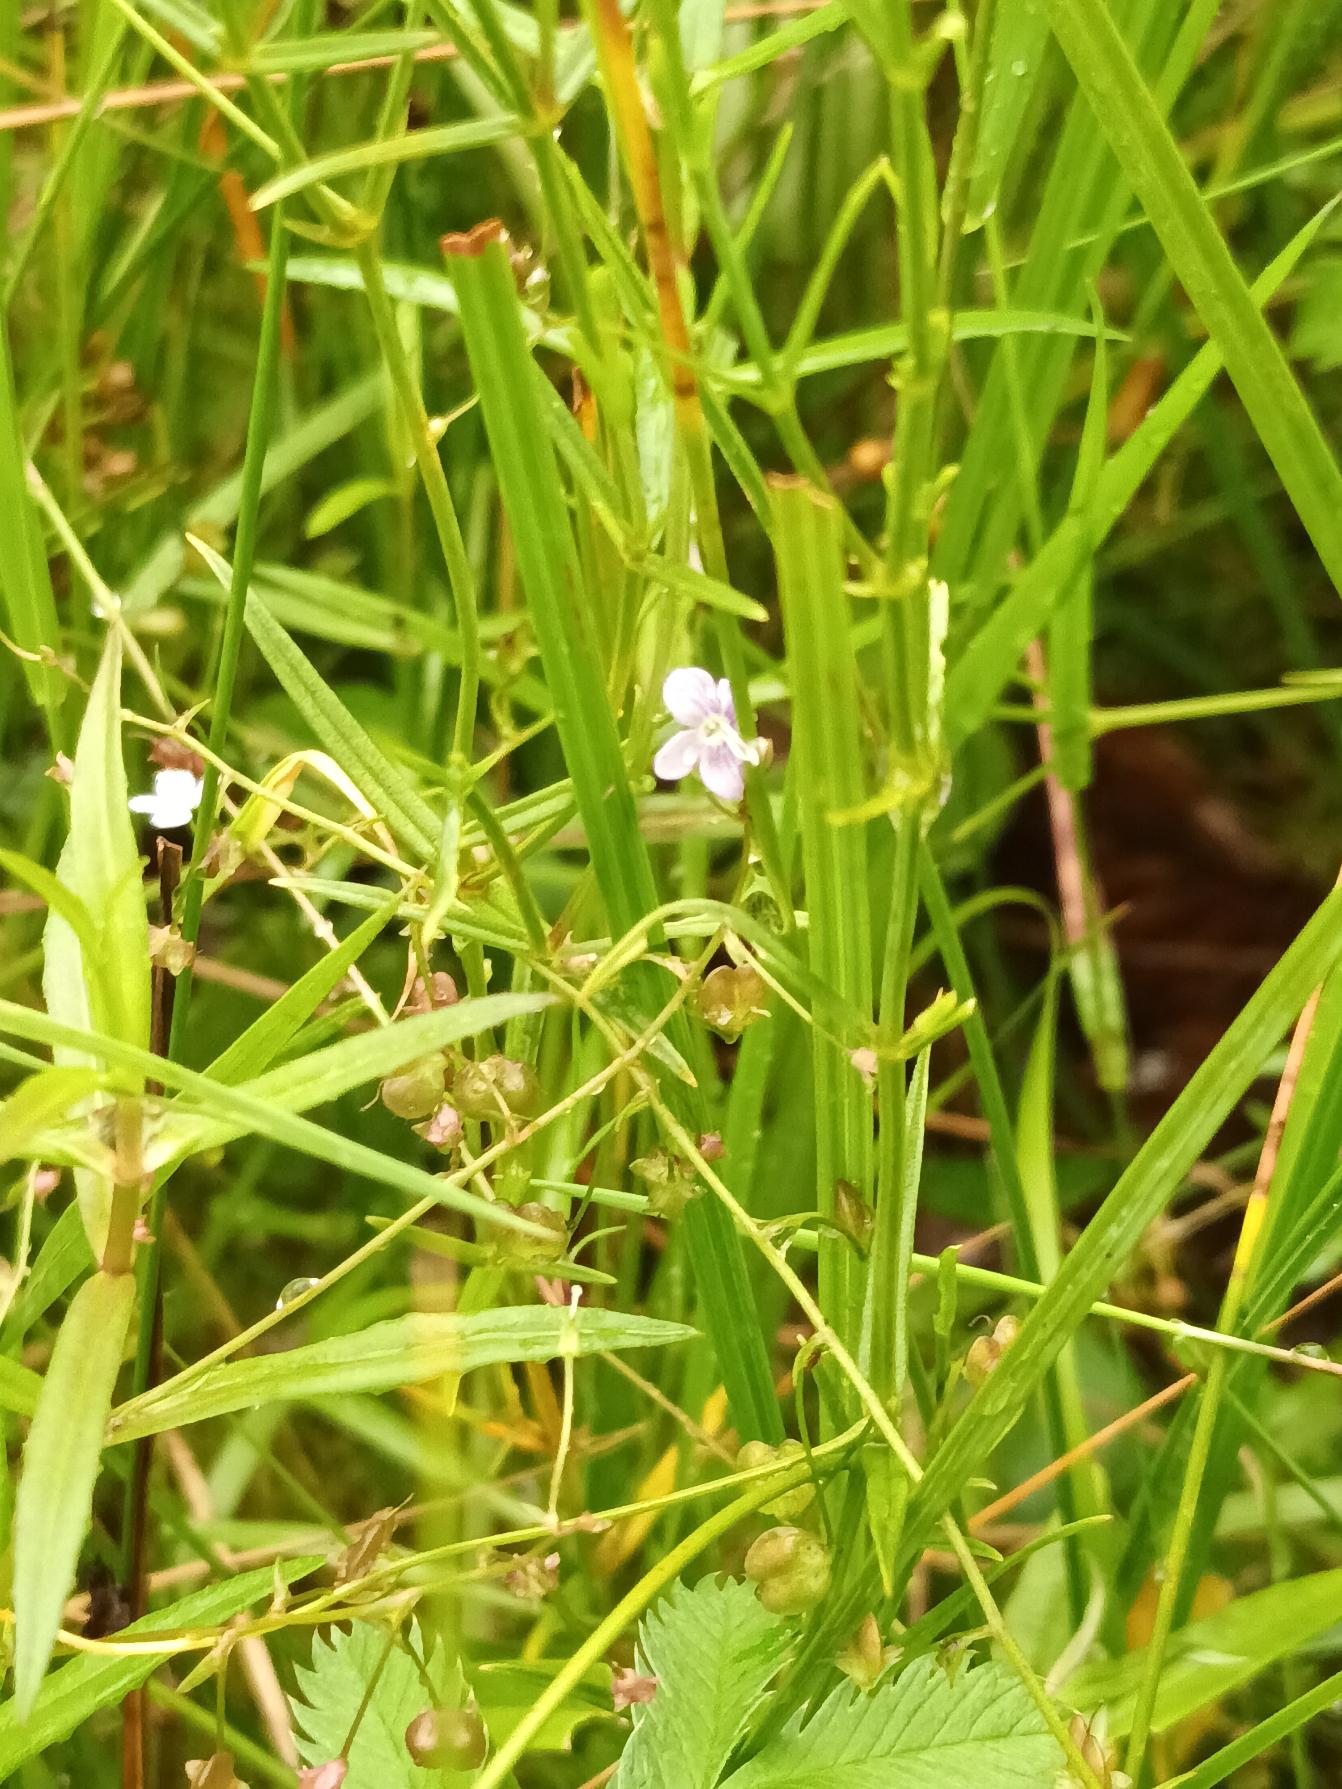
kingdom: Plantae
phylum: Tracheophyta
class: Magnoliopsida
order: Lamiales
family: Plantaginaceae
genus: Veronica
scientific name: Veronica scutellata
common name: Smalbladet ærenpris
